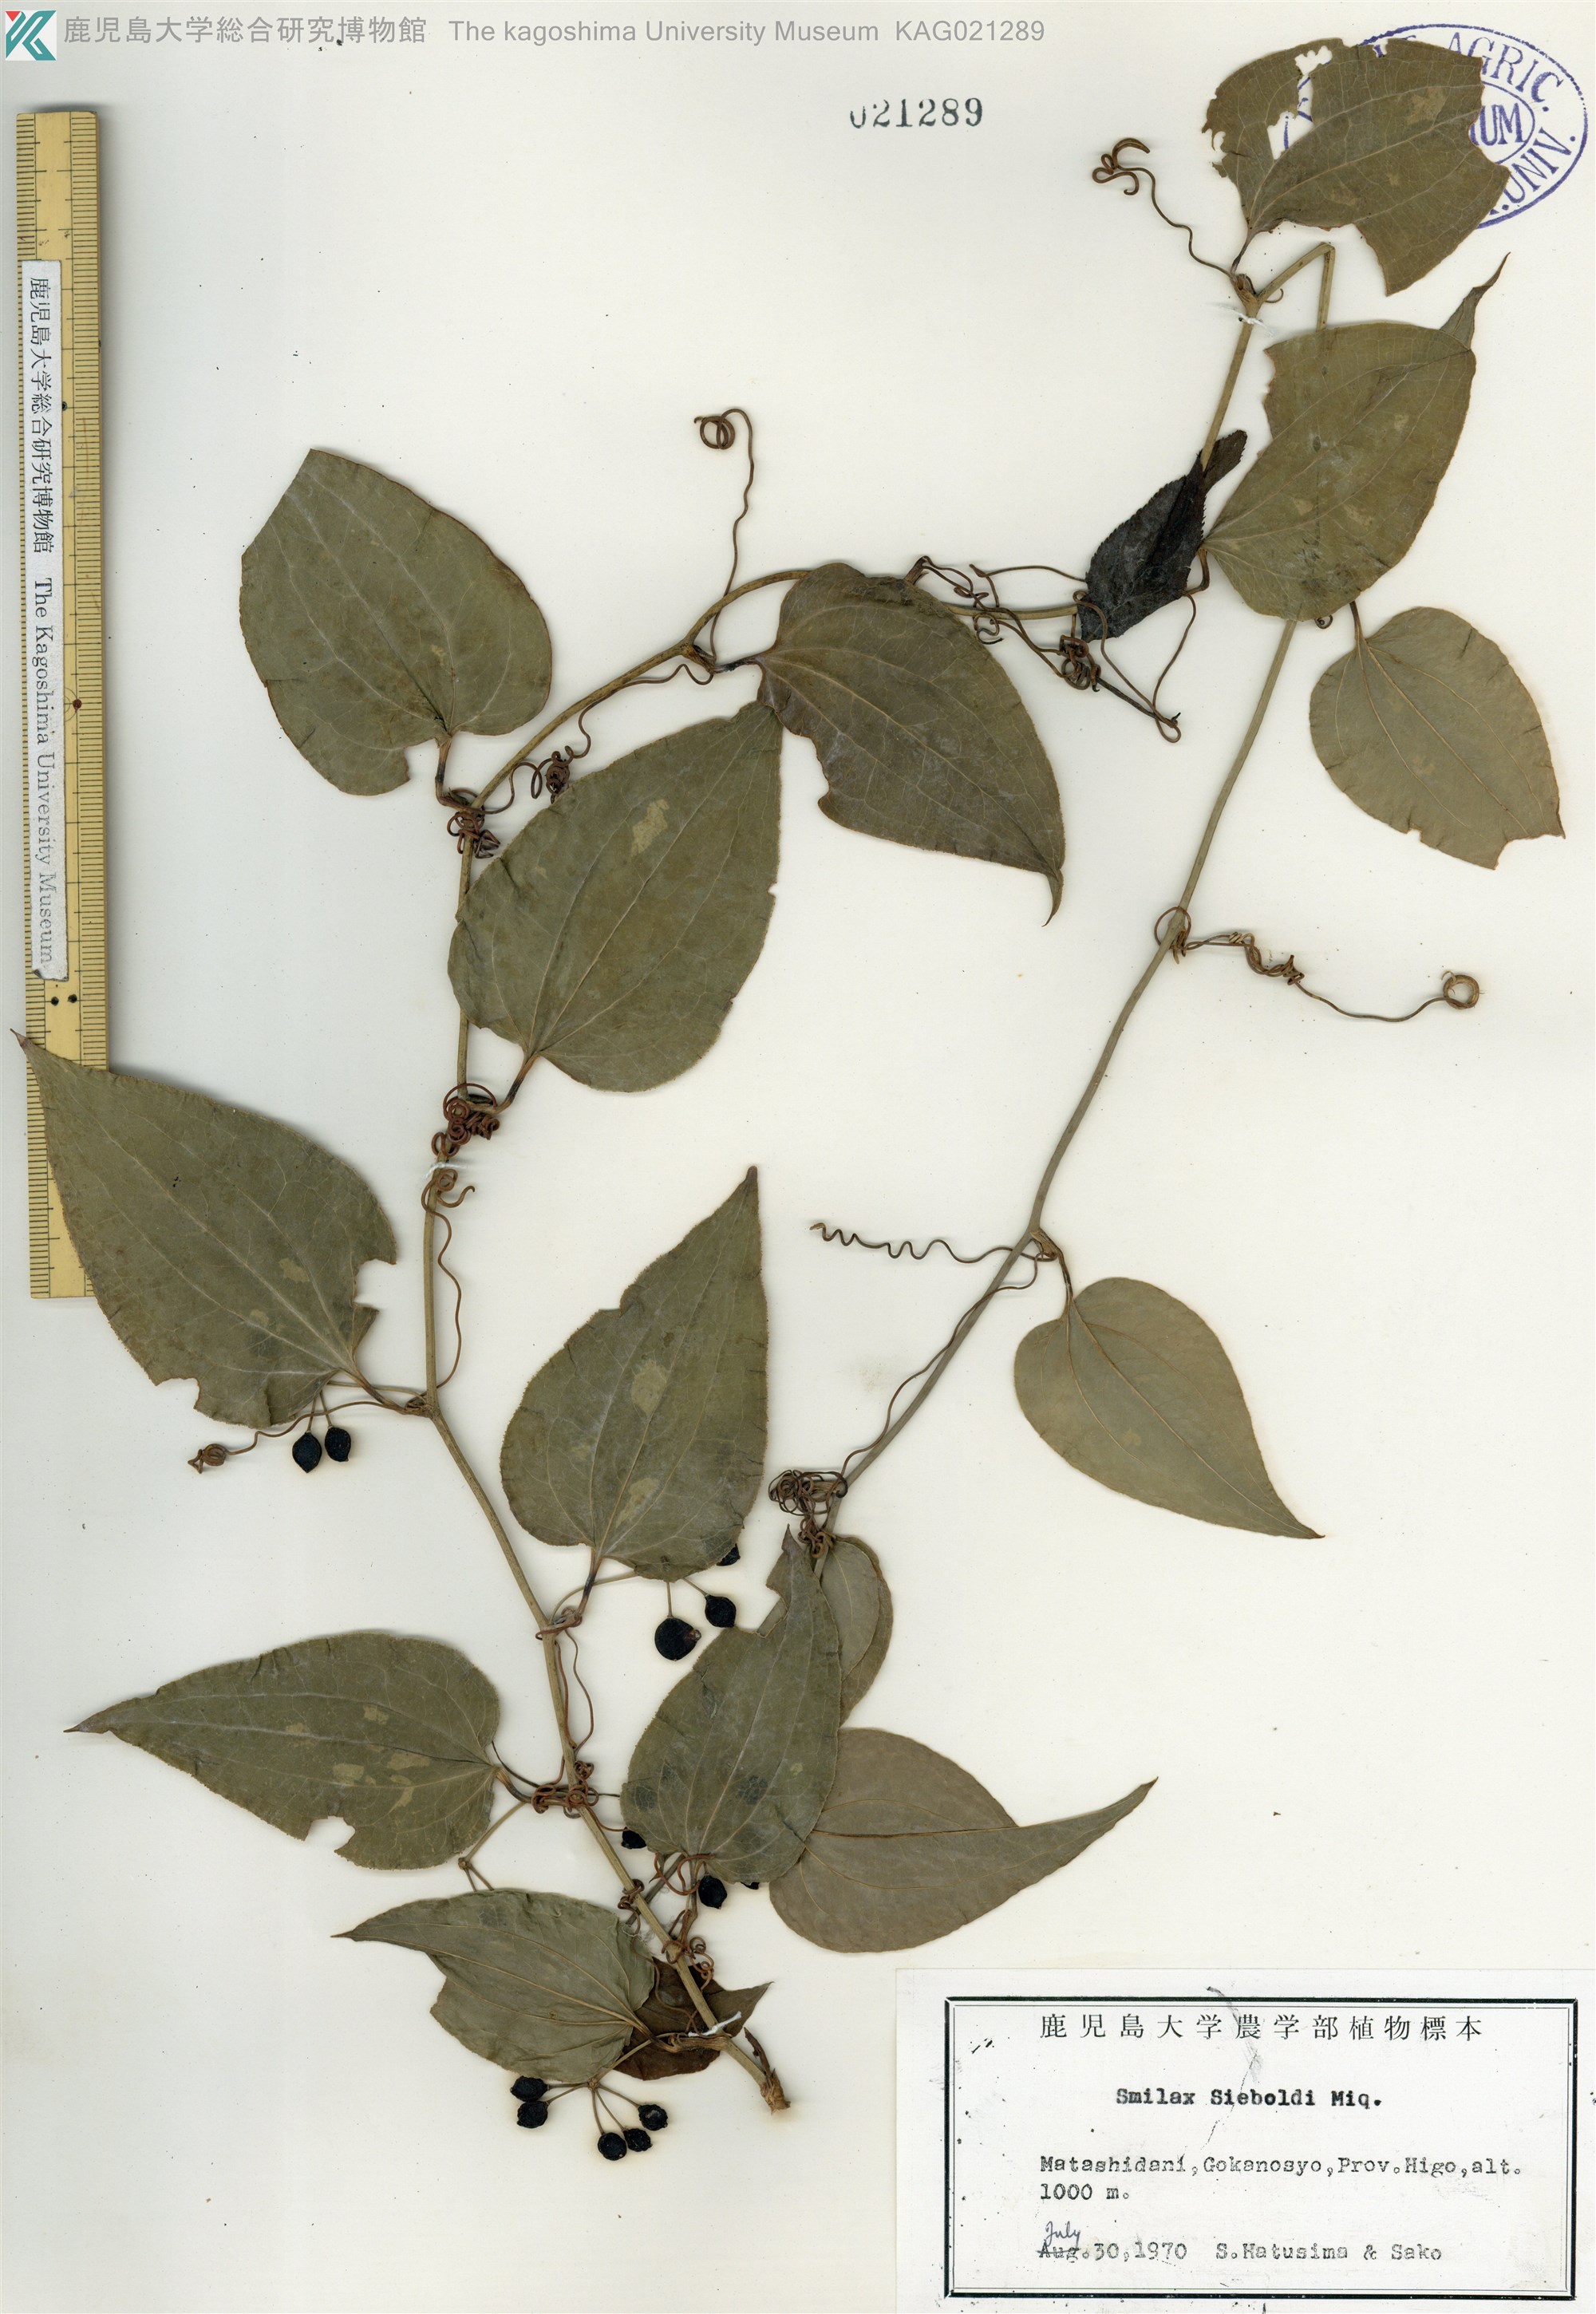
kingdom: Plantae
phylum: Tracheophyta
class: Liliopsida
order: Liliales
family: Smilacaceae
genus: Smilax
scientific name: Smilax sieboldii
